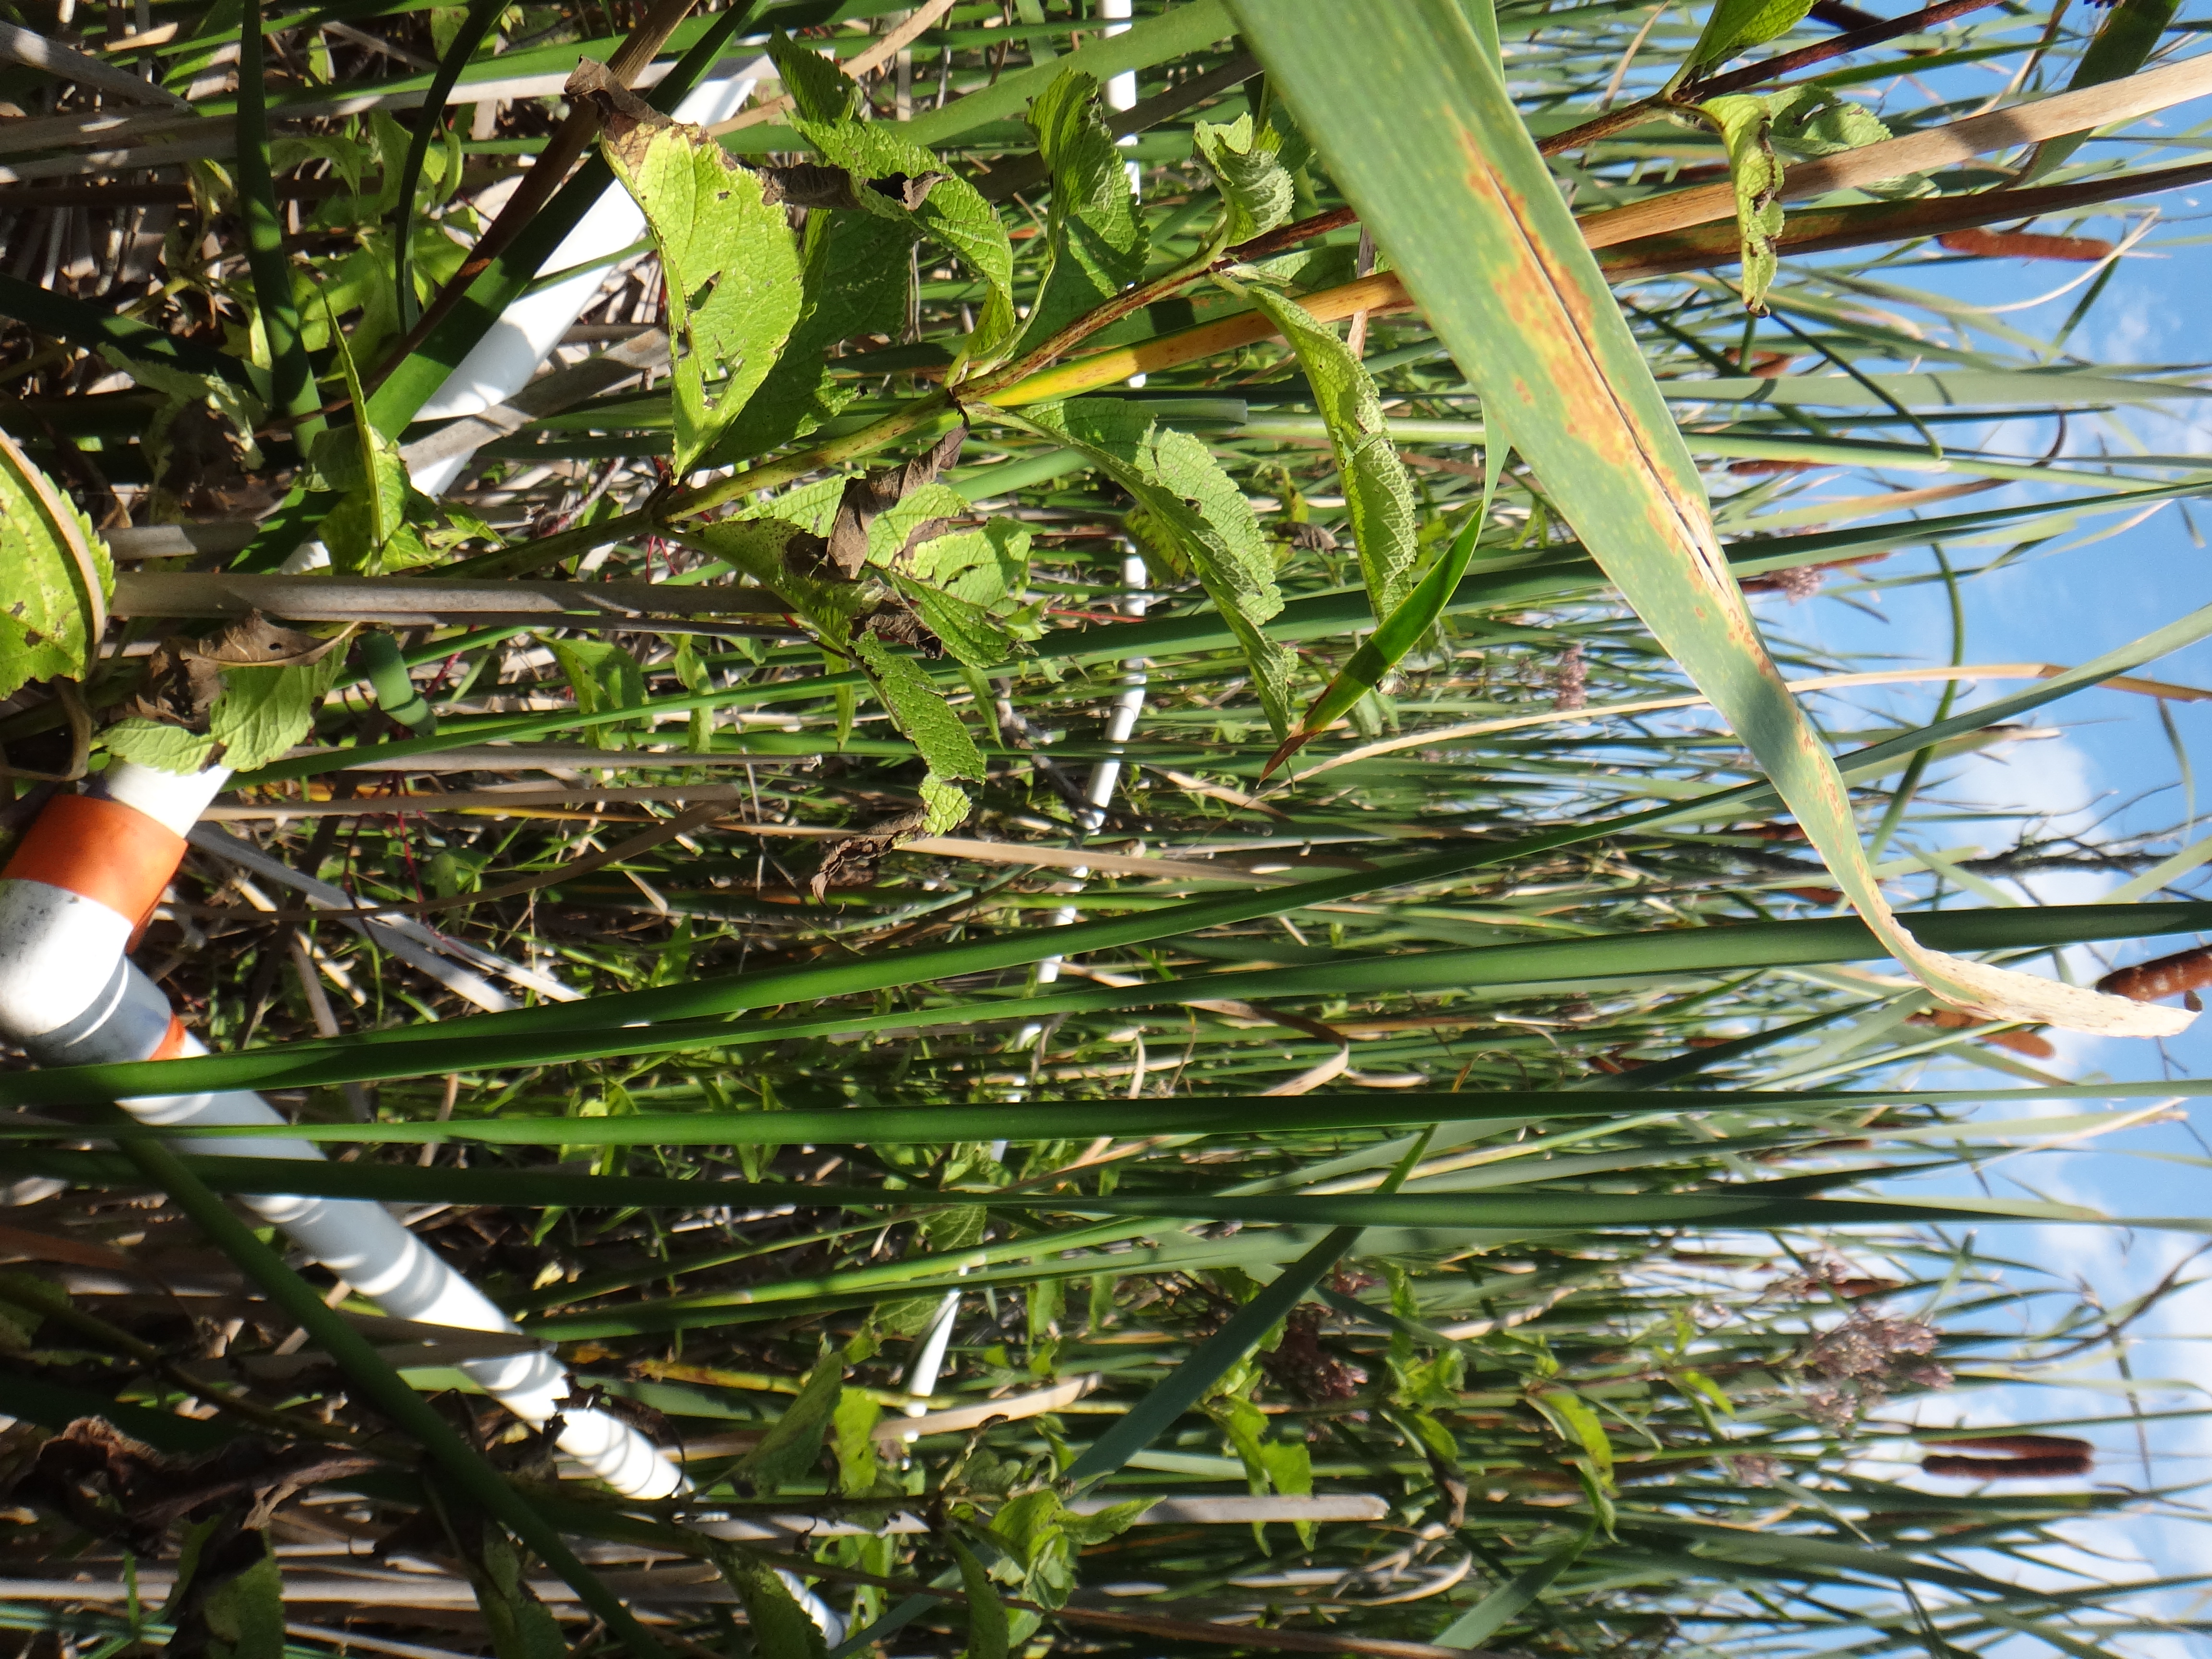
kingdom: Plantae
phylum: Tracheophyta
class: Liliopsida
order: Poales
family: Poaceae
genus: Leersia
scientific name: Leersia oryzoides
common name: Cut-grass
